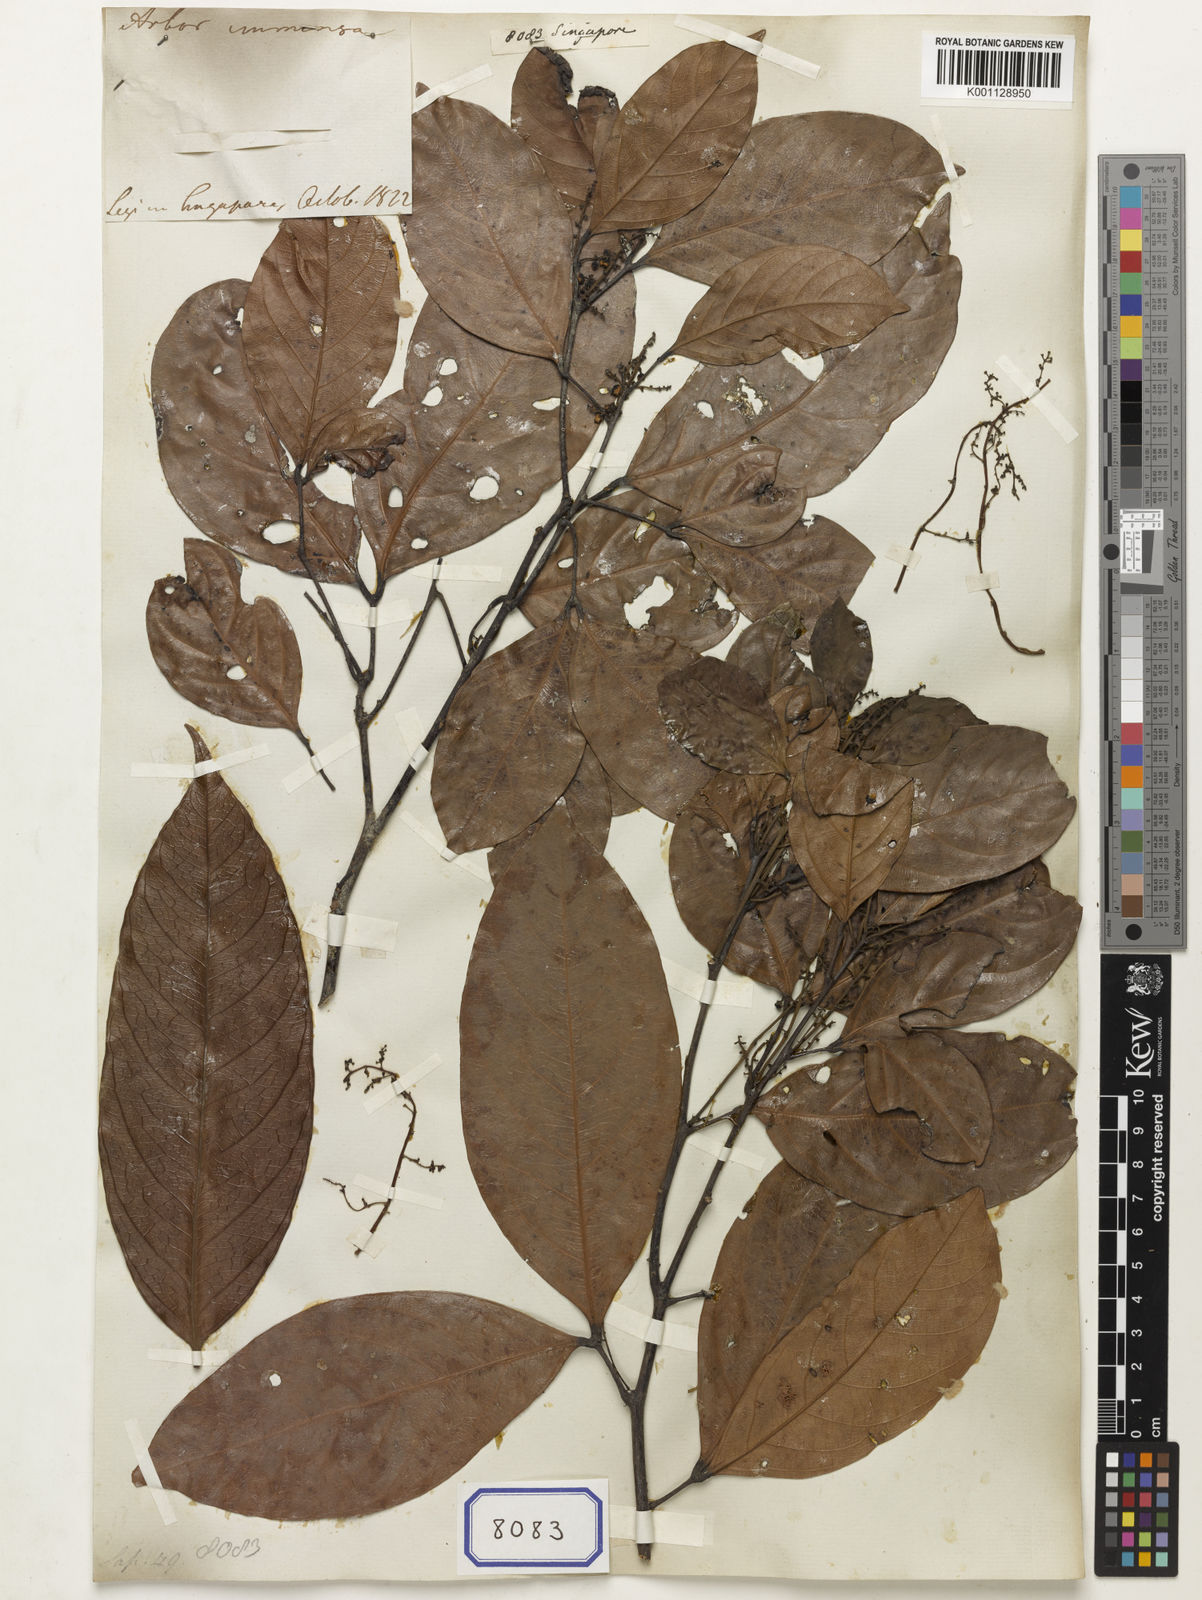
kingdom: Plantae
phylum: Tracheophyta
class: Magnoliopsida
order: Sapindales
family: Sapindaceae
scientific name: Sapindaceae
